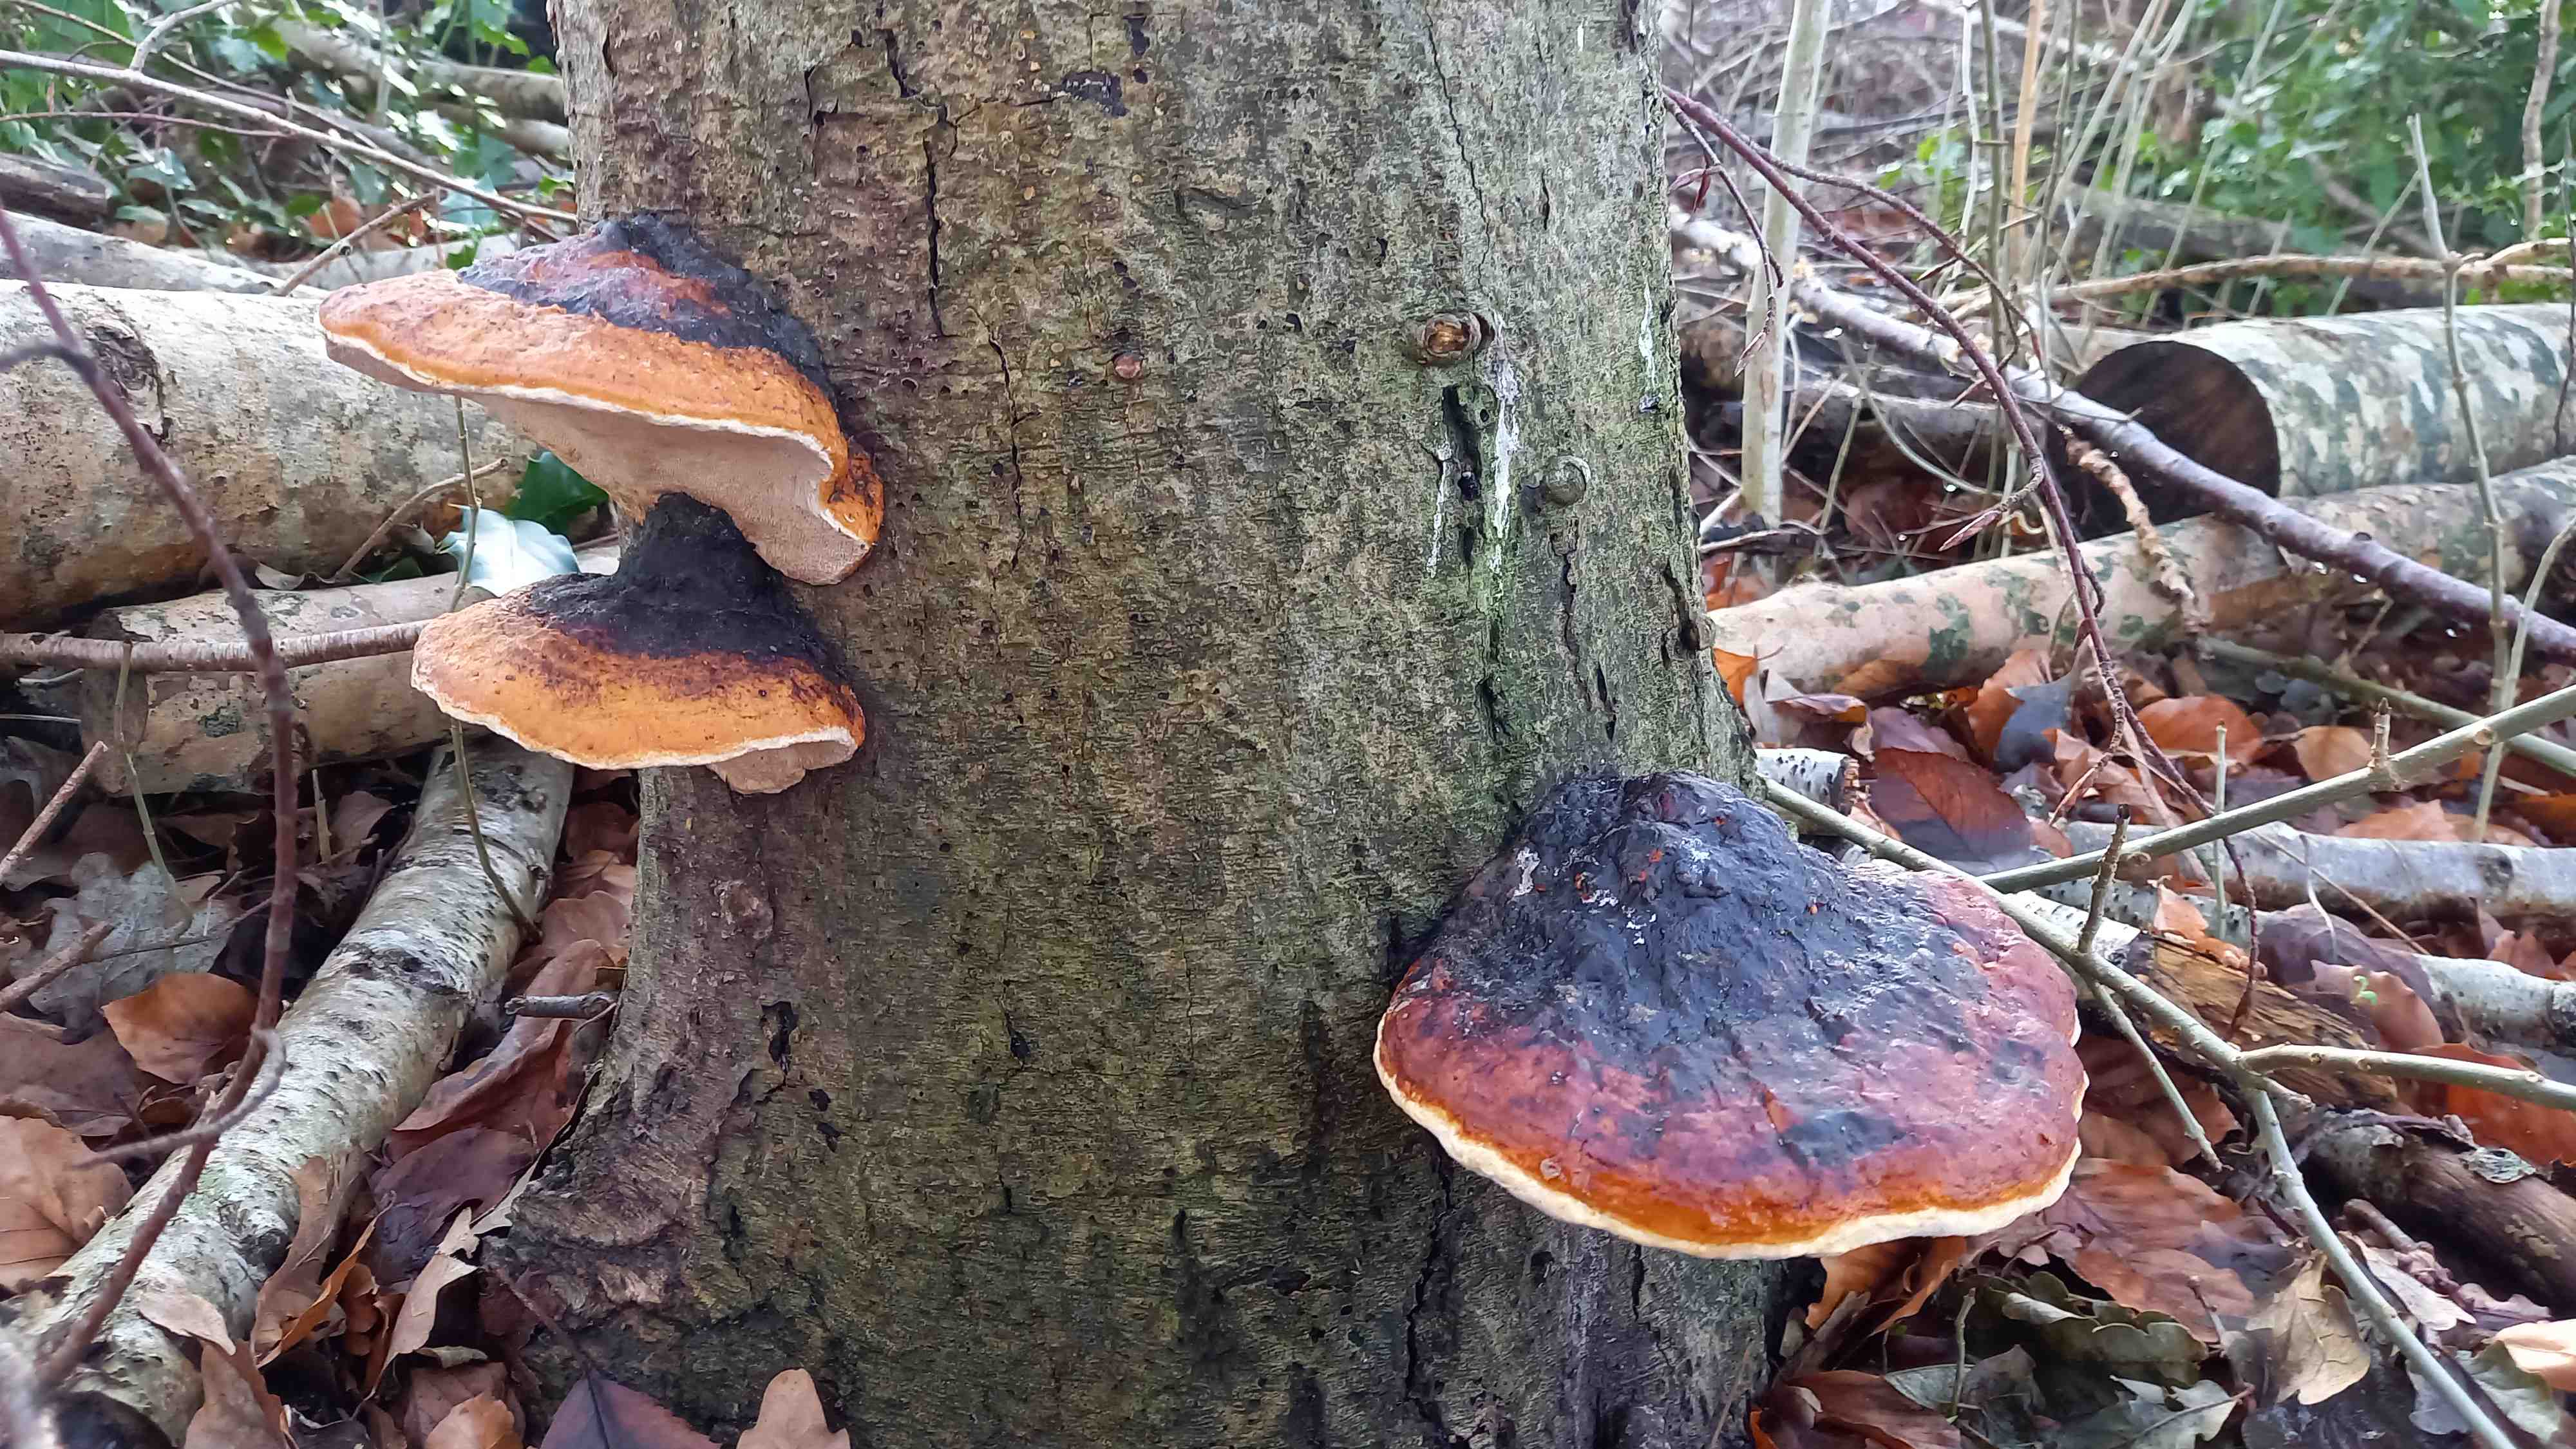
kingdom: Fungi
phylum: Basidiomycota
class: Agaricomycetes
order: Polyporales
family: Fomitopsidaceae
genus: Fomitopsis
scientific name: Fomitopsis pinicola
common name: randbæltet hovporesvamp
